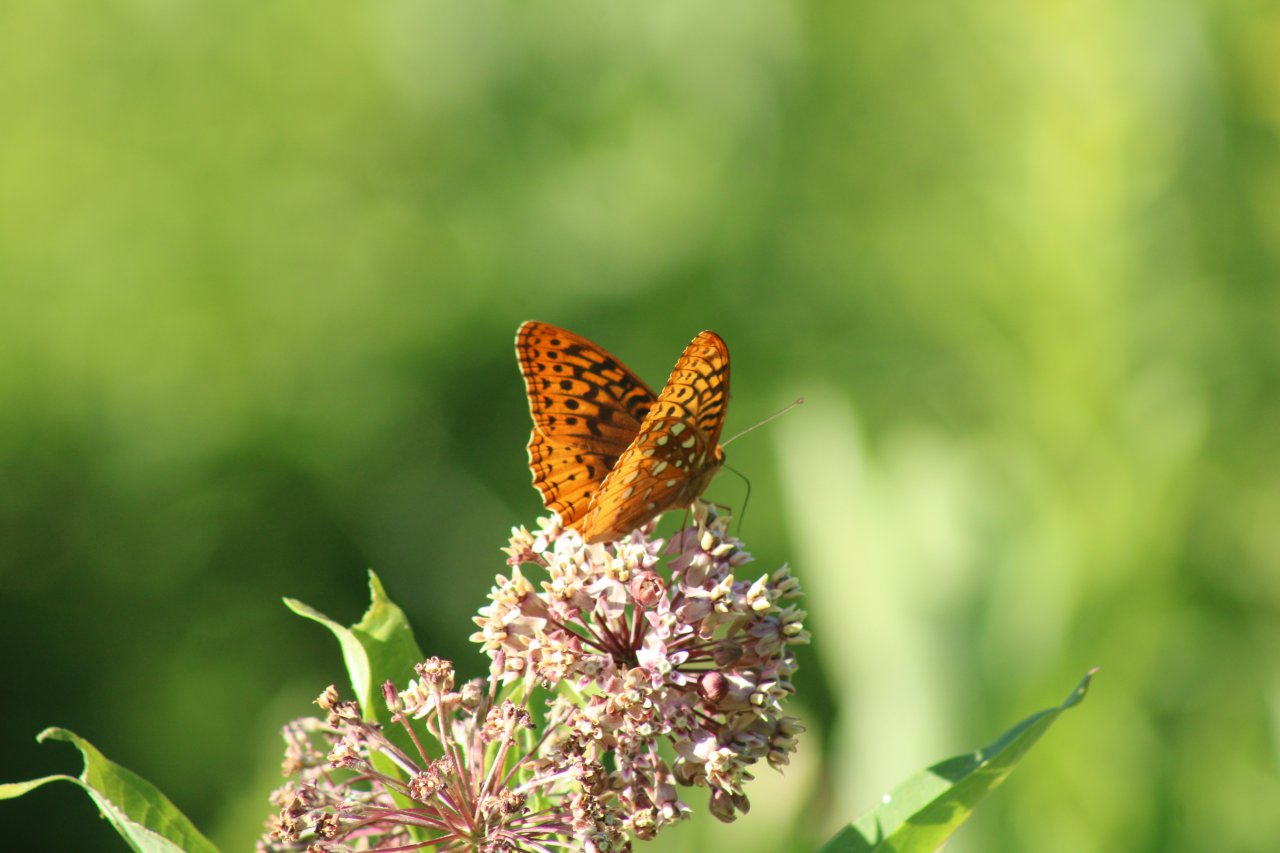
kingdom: Animalia
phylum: Arthropoda
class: Insecta
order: Lepidoptera
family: Nymphalidae
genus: Speyeria
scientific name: Speyeria cybele
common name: Great Spangled Fritillary
